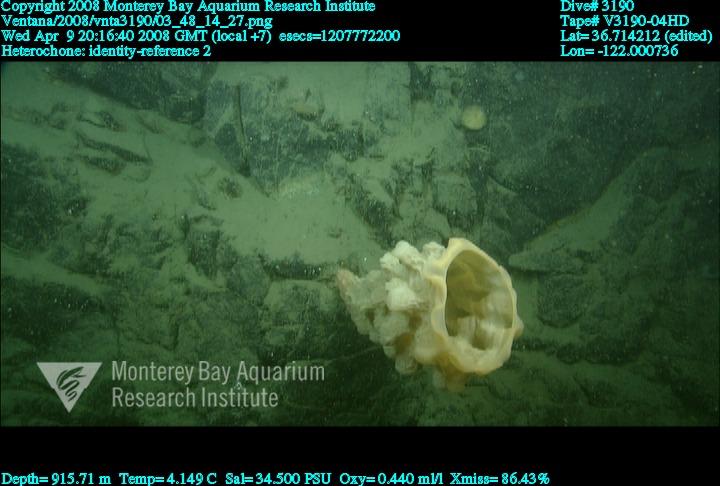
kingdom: Animalia
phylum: Porifera
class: Hexactinellida
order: Sceptrulophora
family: Aphrocallistidae
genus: Heterochone
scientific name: Heterochone
